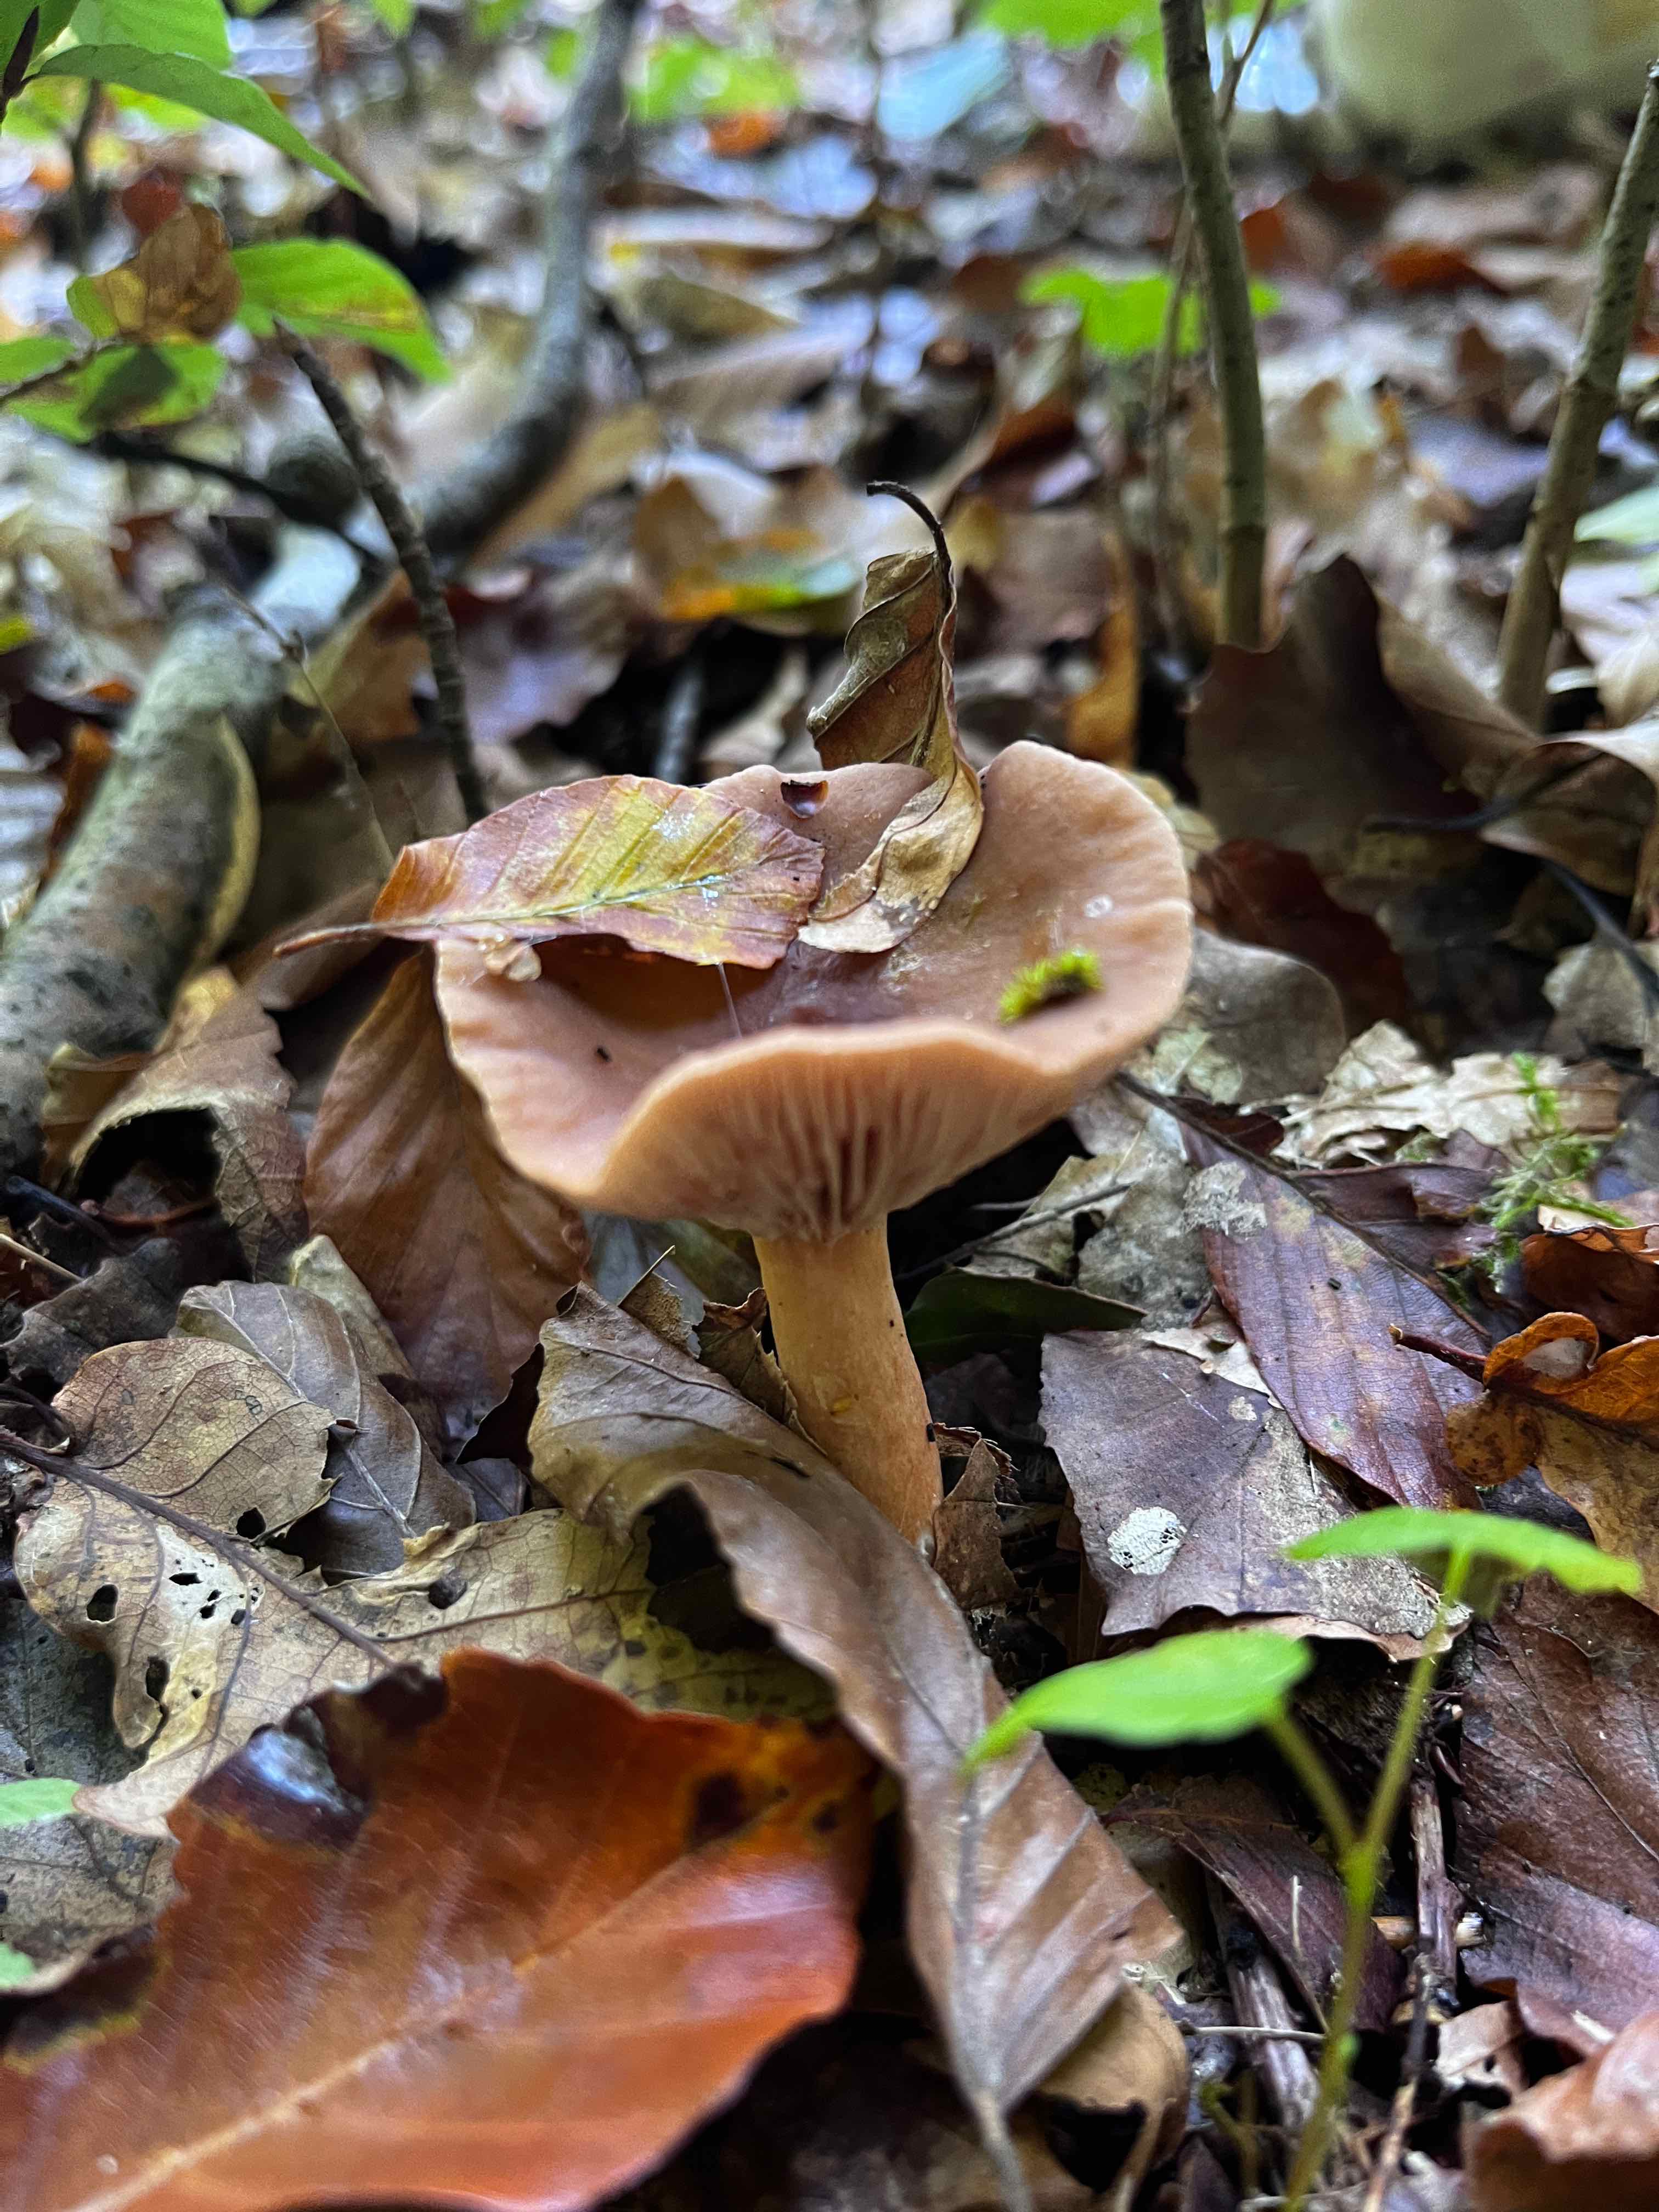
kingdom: Fungi
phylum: Basidiomycota
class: Agaricomycetes
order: Russulales
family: Russulaceae
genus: Lactarius
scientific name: Lactarius
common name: mælkehat
